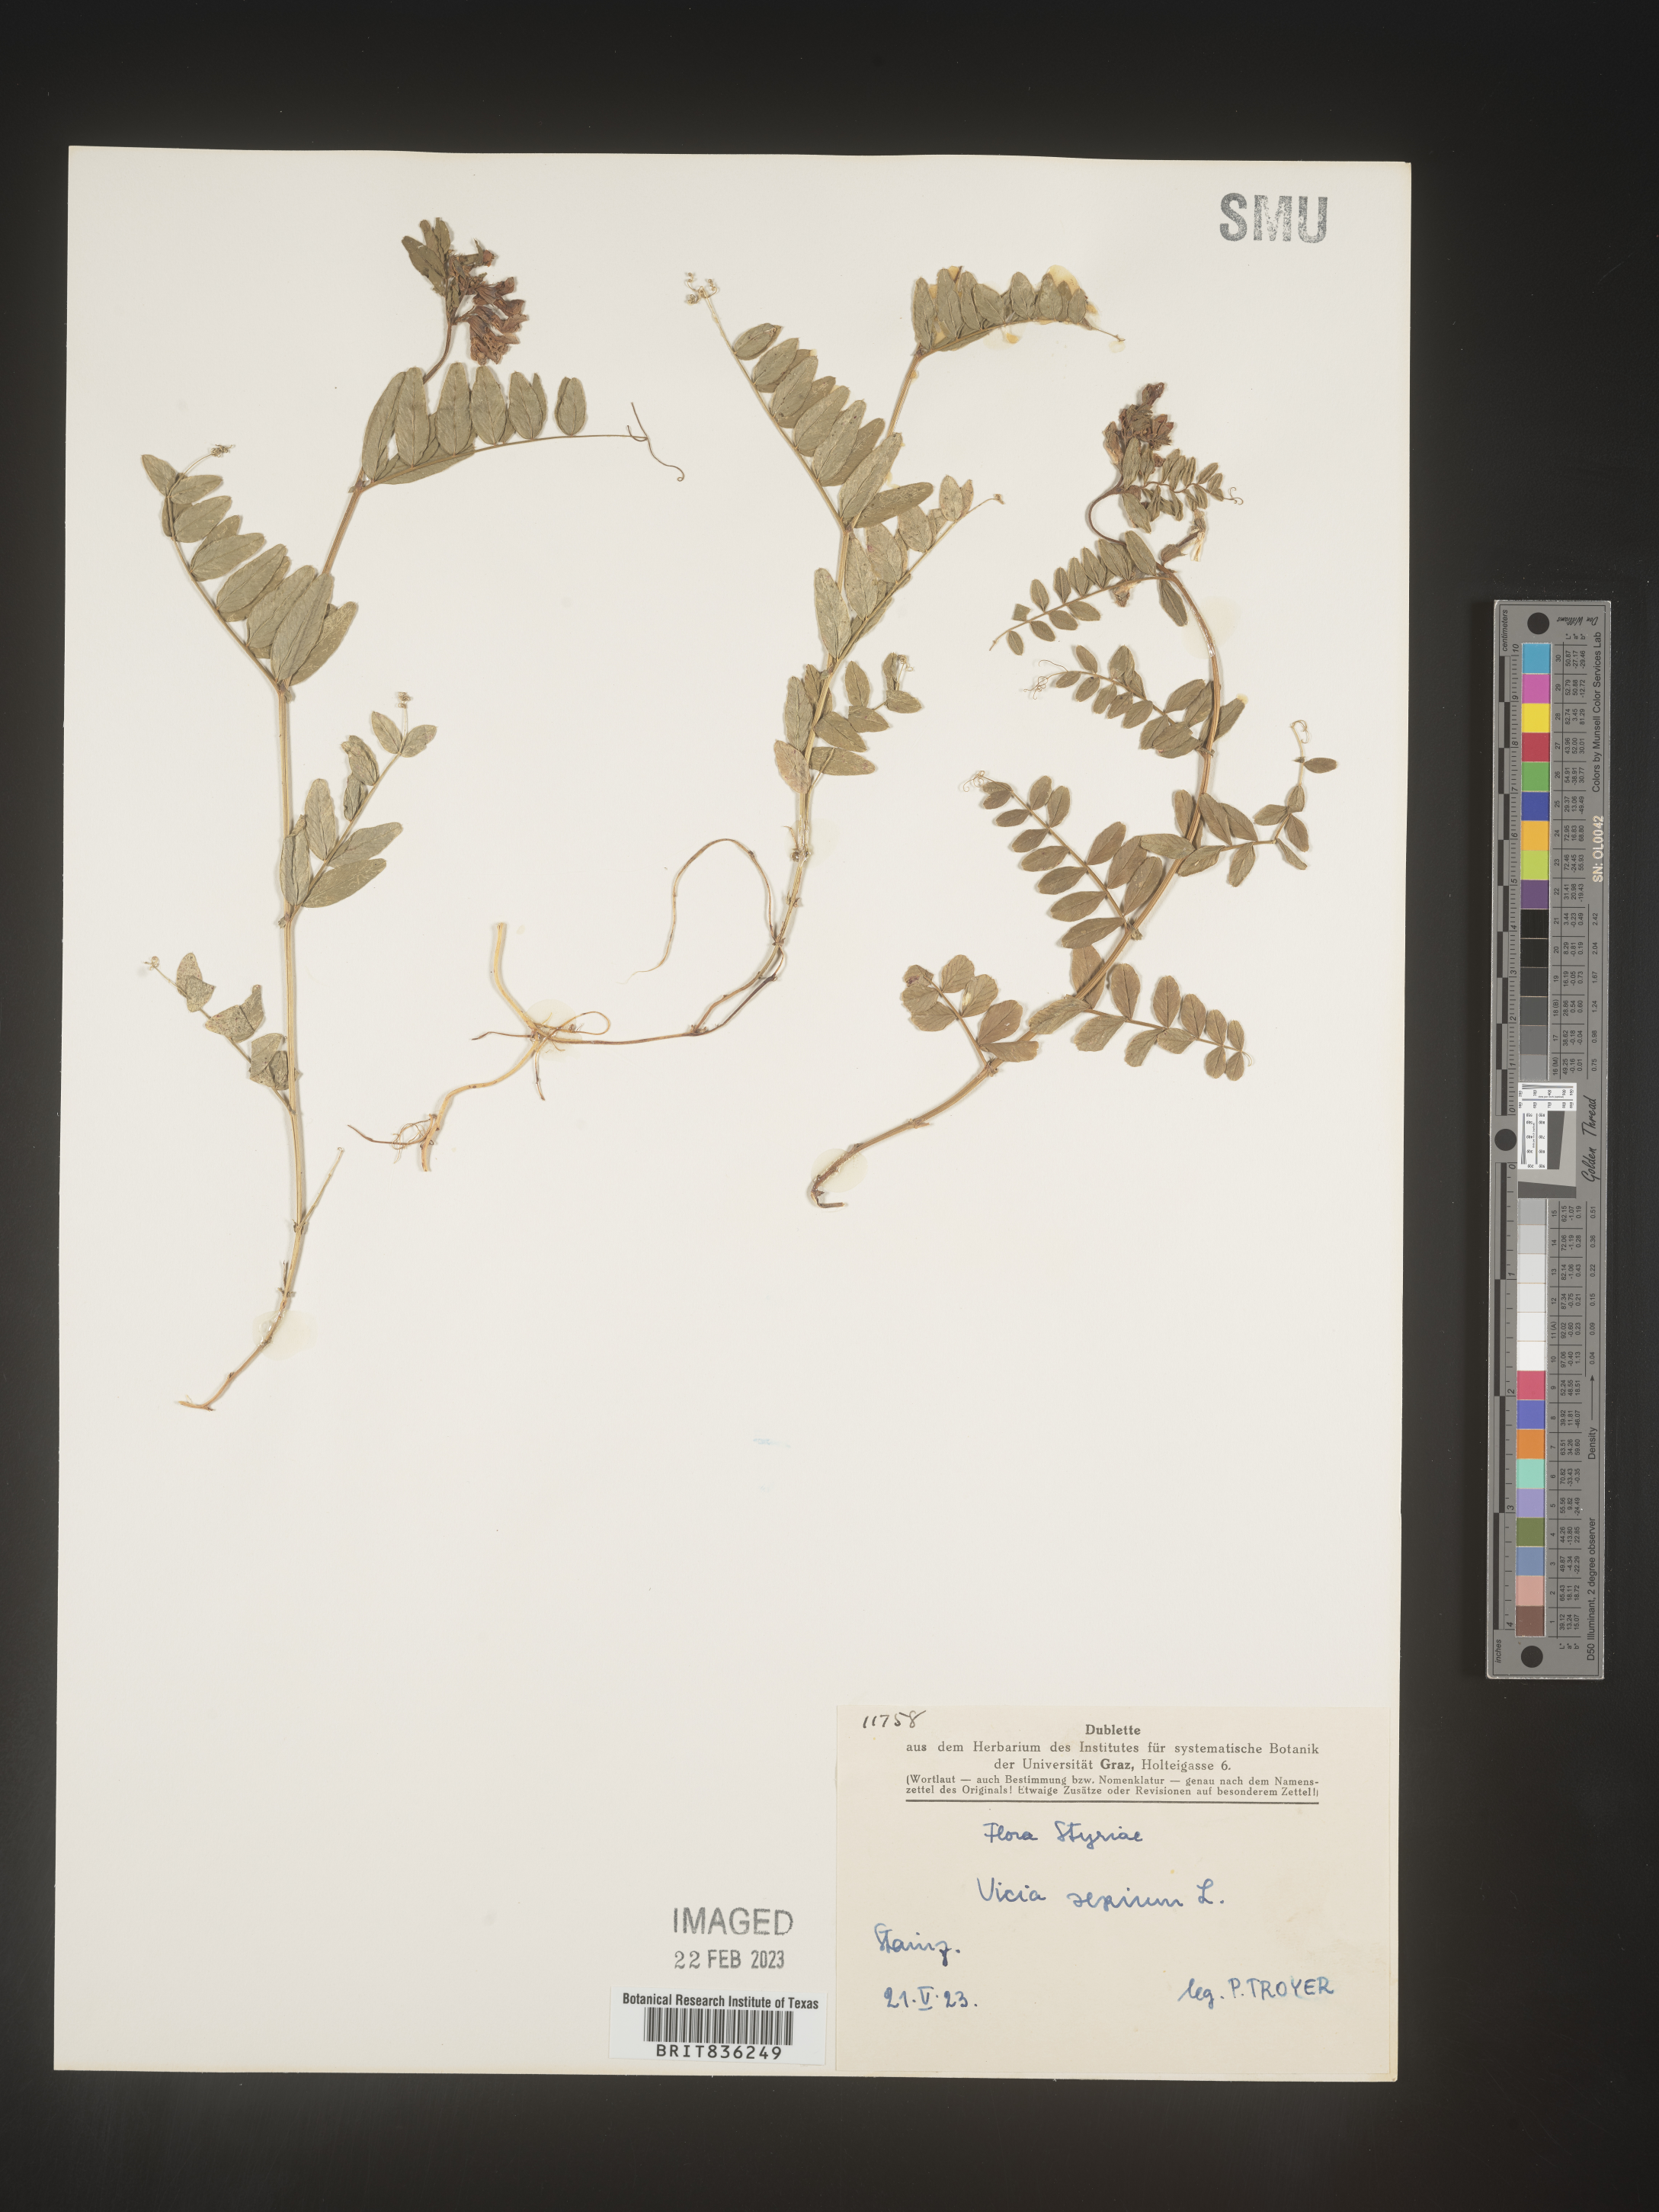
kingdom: Plantae
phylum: Tracheophyta
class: Magnoliopsida
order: Fabales
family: Fabaceae
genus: Vicia
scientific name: Vicia
